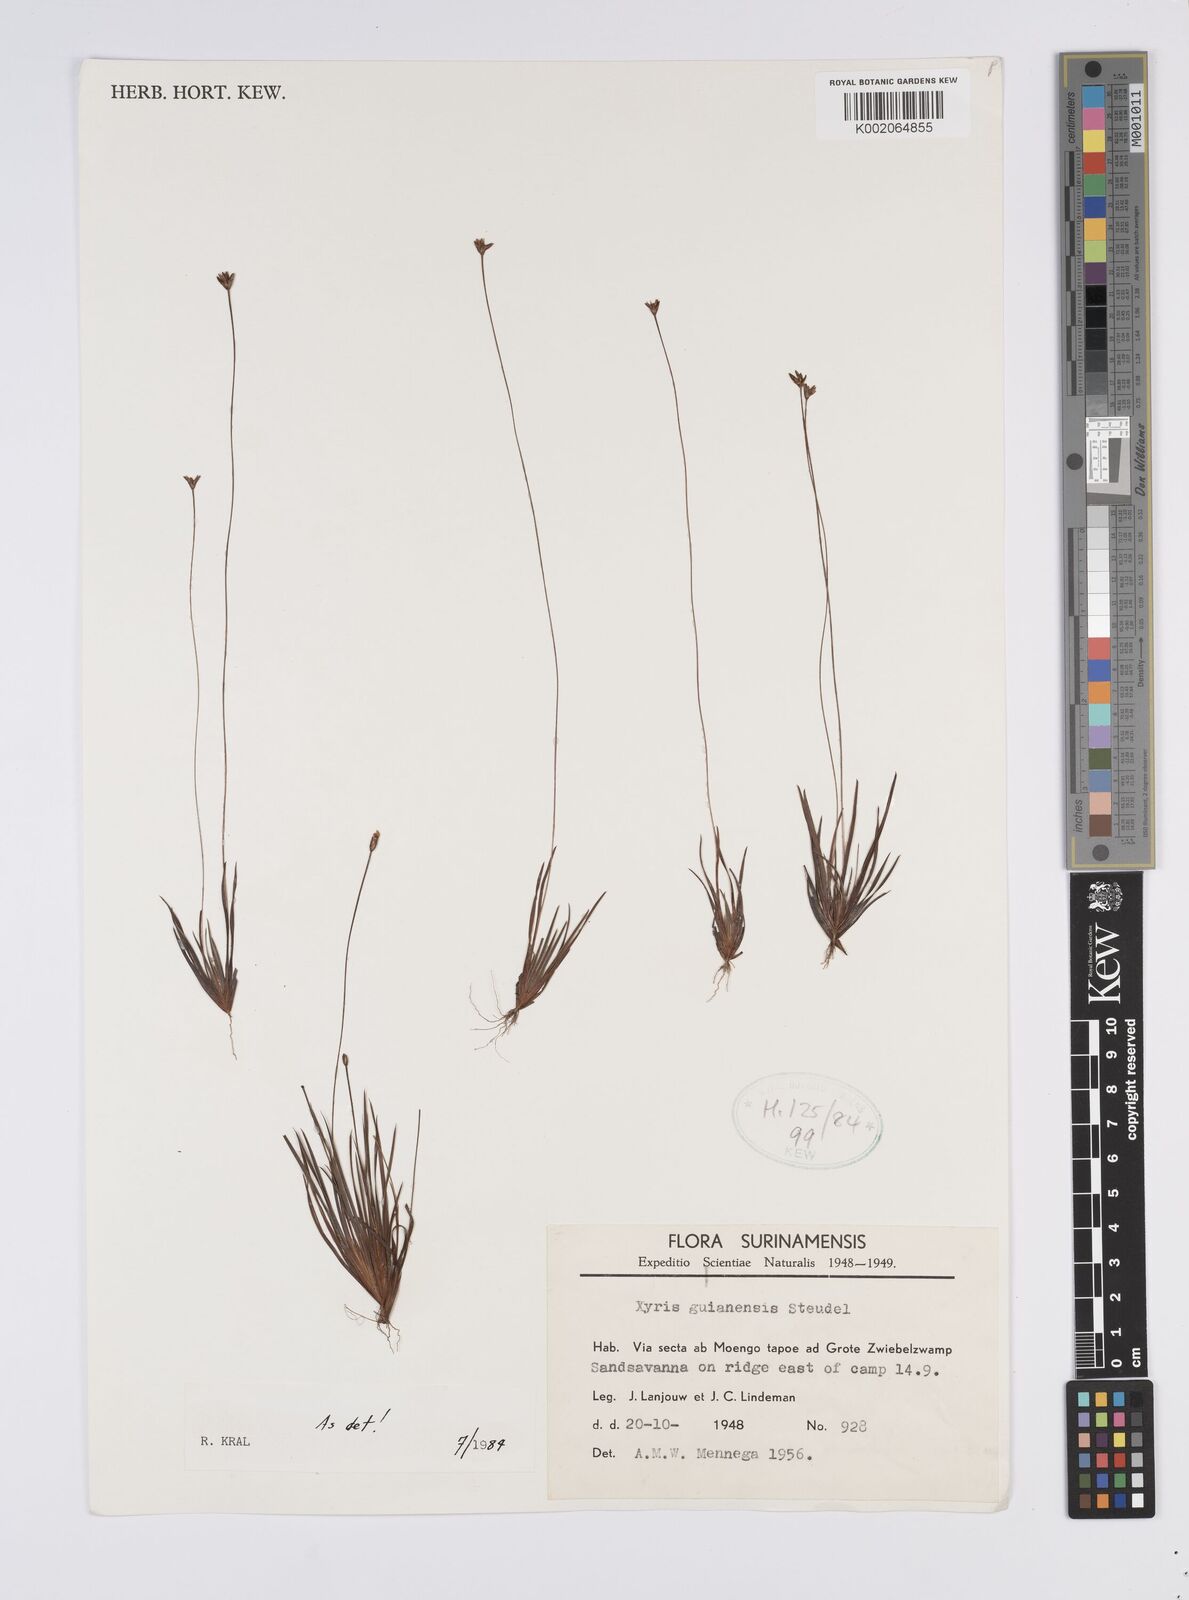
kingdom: Plantae
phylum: Tracheophyta
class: Liliopsida
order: Poales
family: Xyridaceae
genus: Xyris
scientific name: Xyris guianensis
